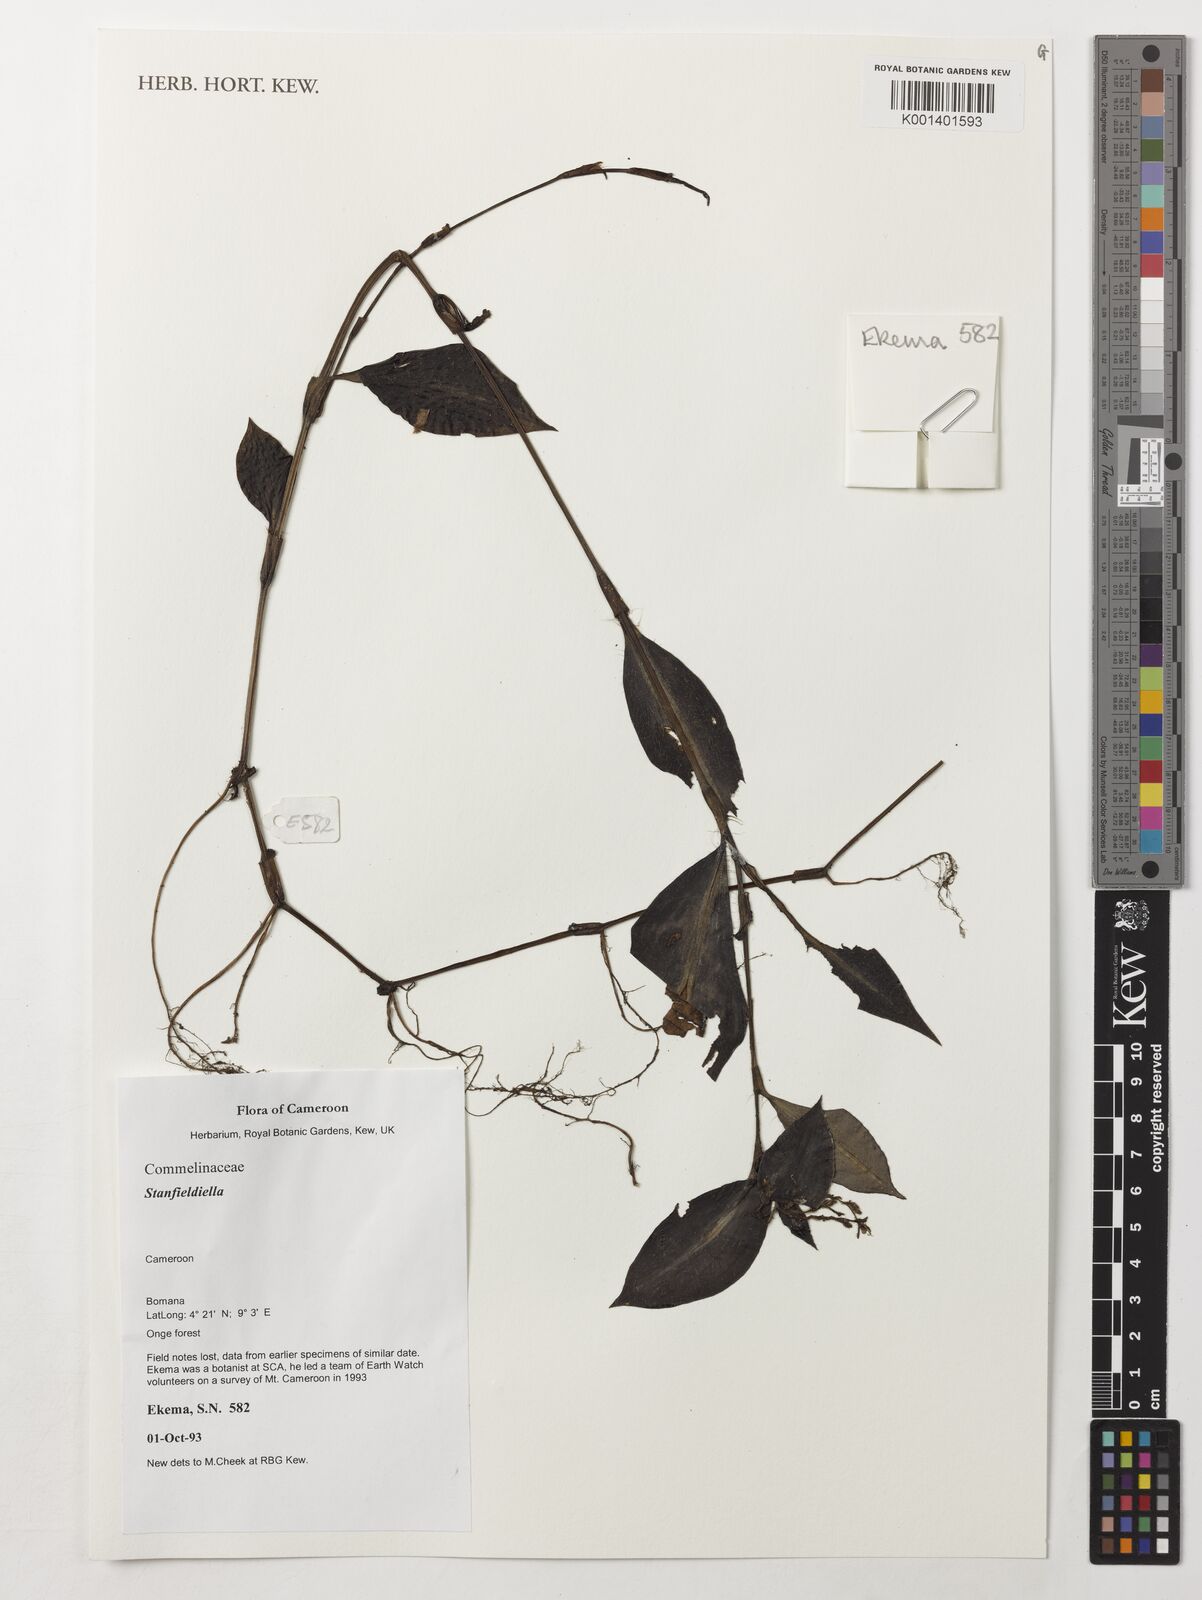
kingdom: Plantae
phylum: Tracheophyta
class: Liliopsida
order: Commelinales
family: Commelinaceae
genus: Stanfieldiella
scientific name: Stanfieldiella
